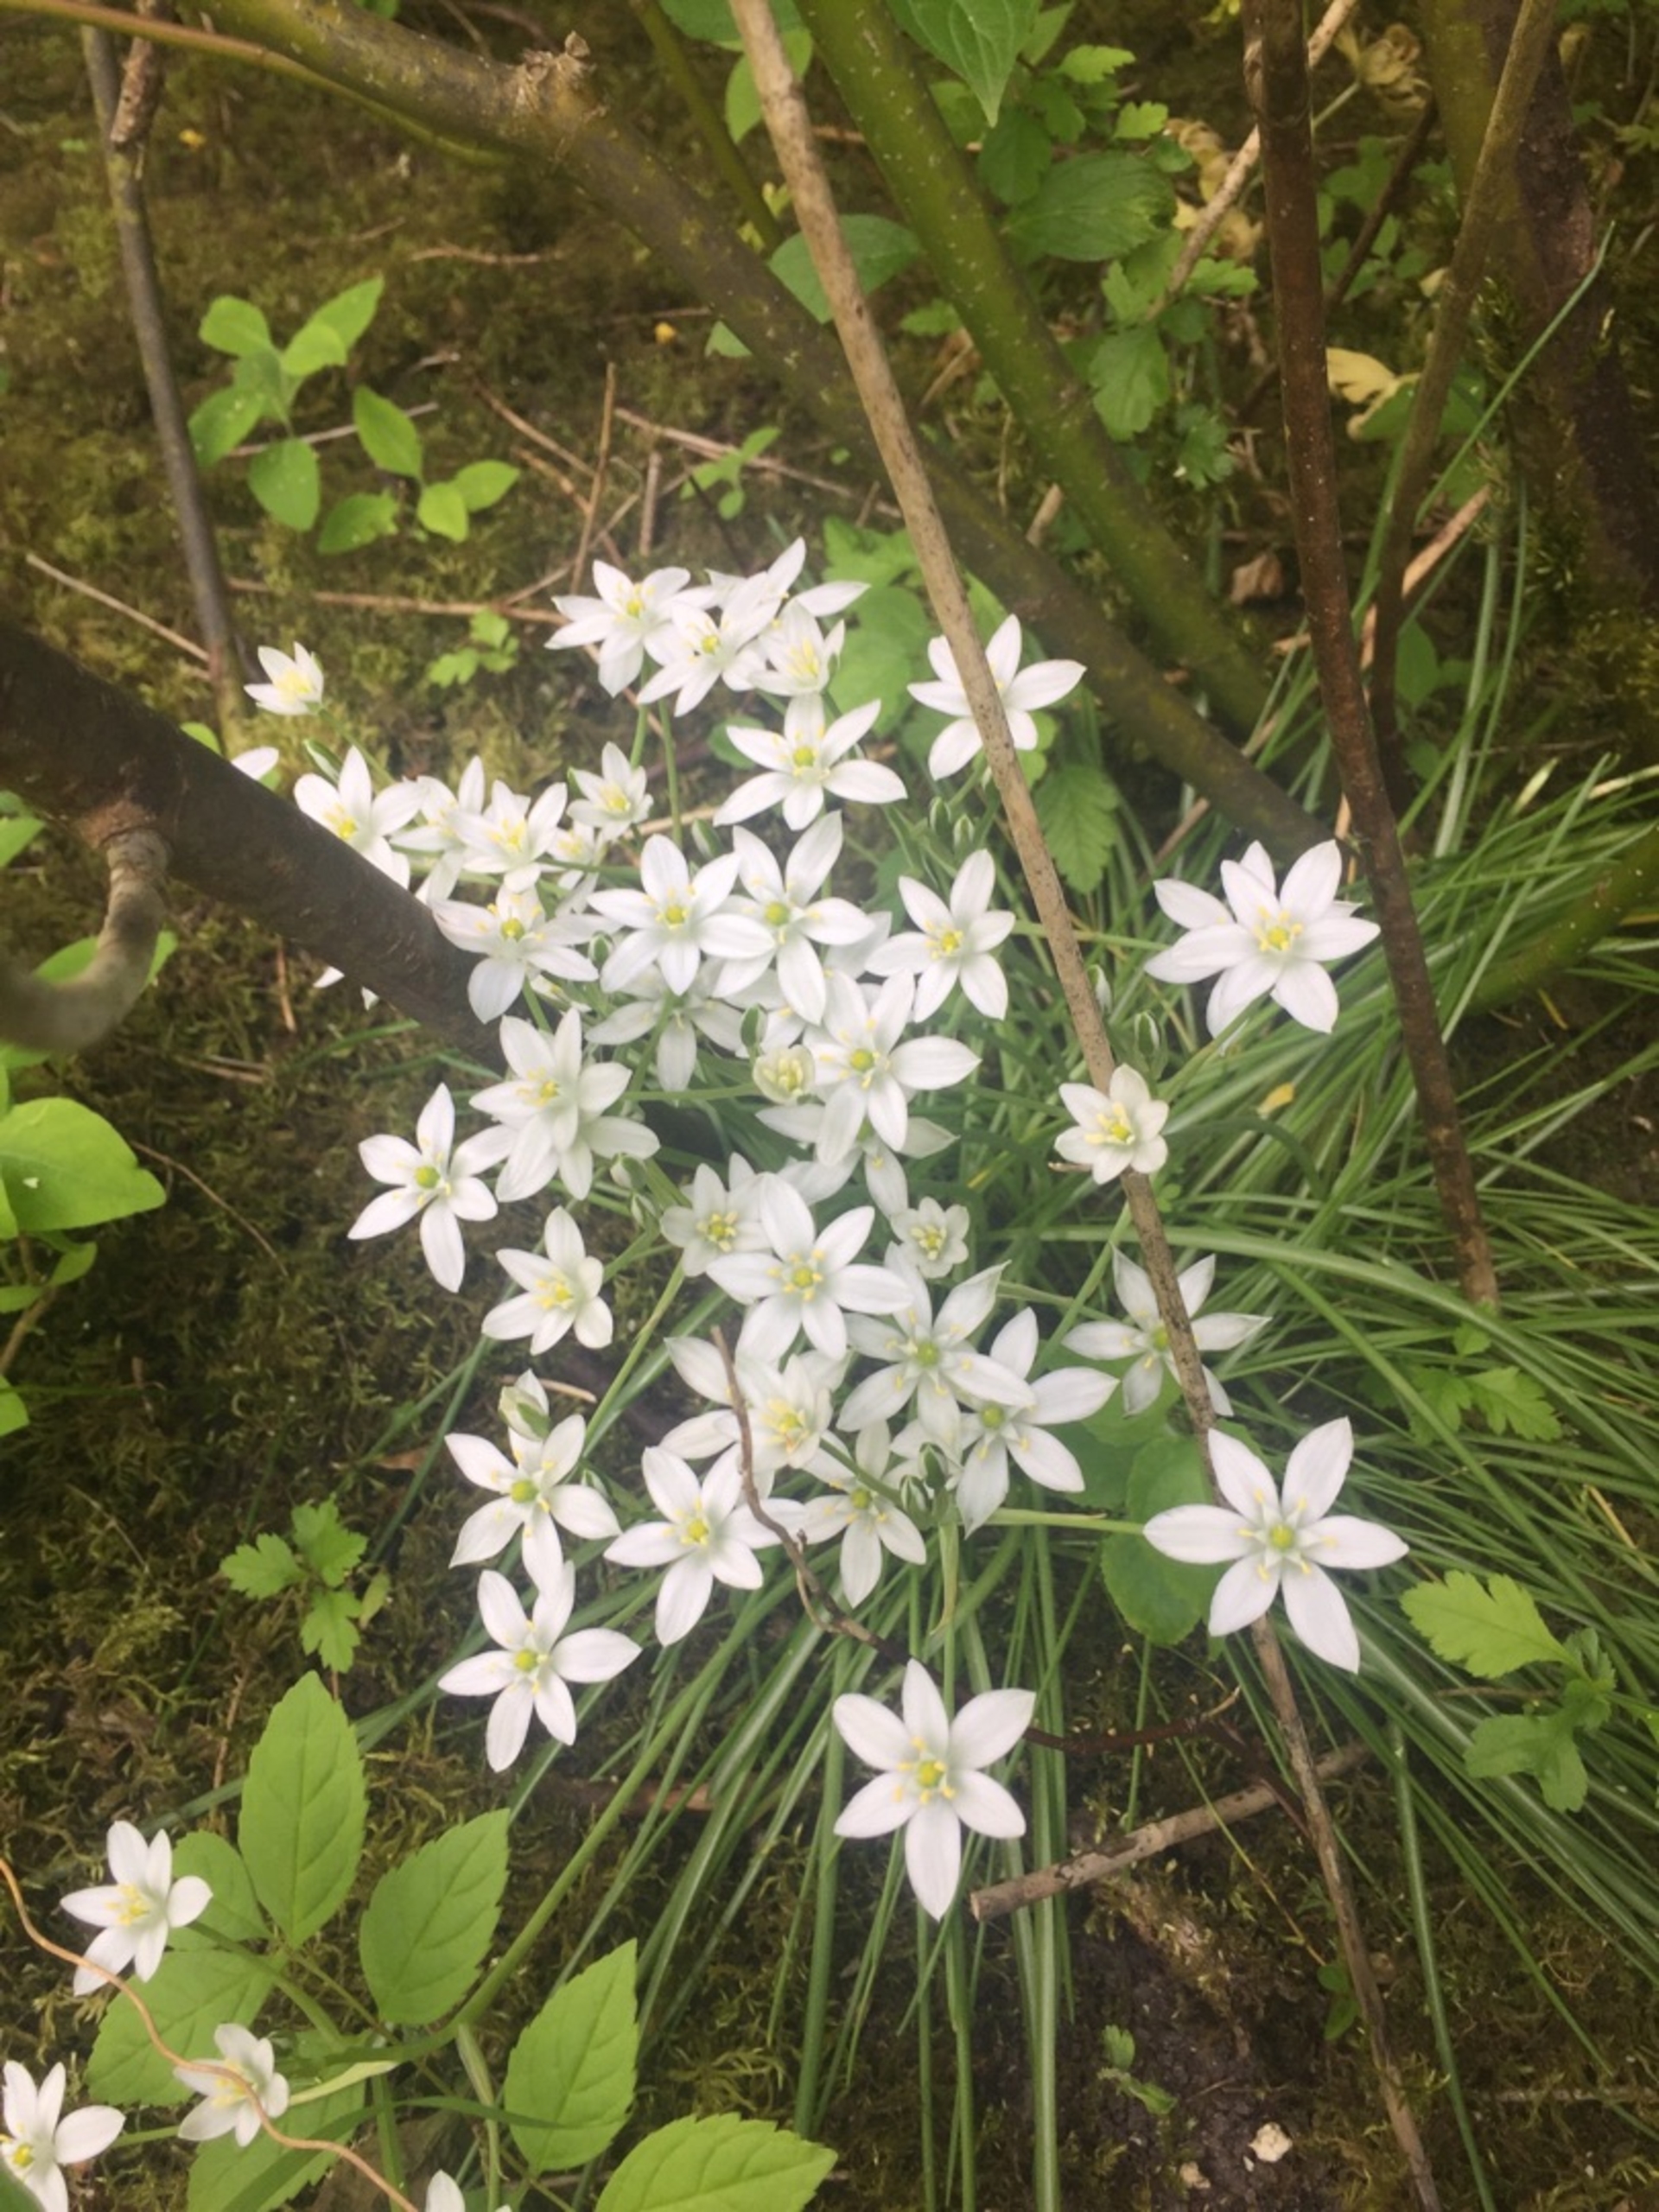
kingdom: Plantae
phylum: Tracheophyta
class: Liliopsida
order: Asparagales
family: Asparagaceae
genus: Ornithogalum
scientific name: Ornithogalum umbellatum
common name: Kost-fuglemælk
